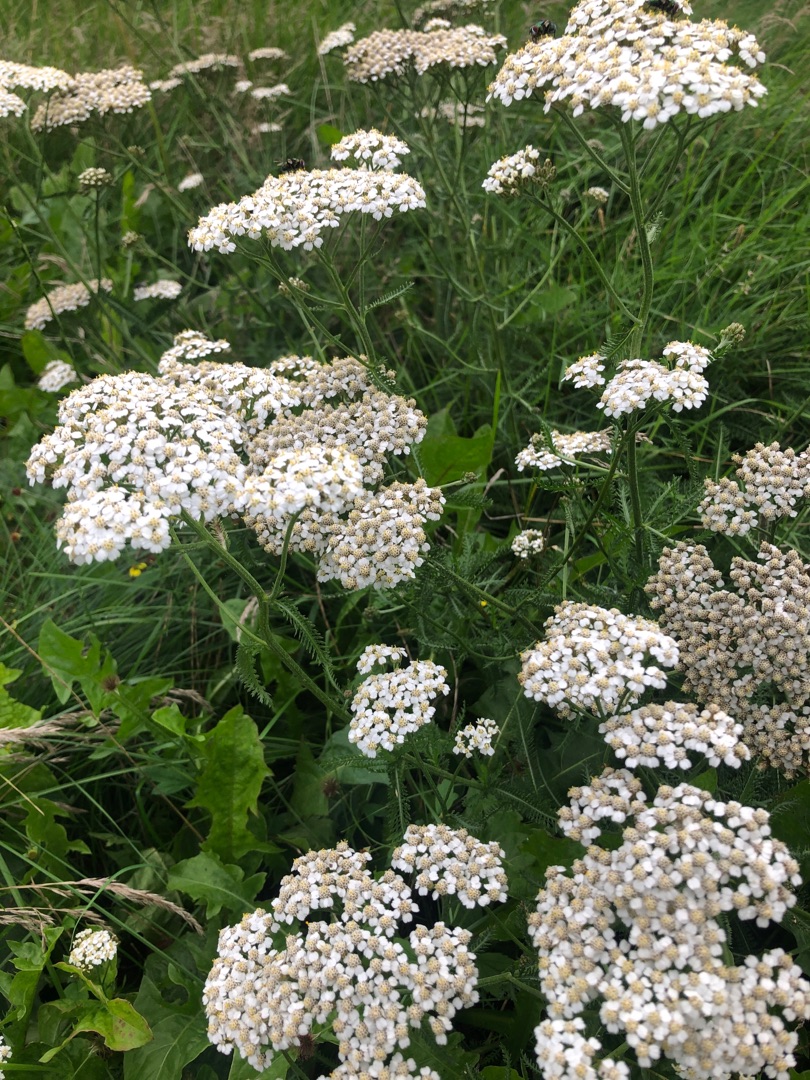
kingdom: Plantae
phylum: Tracheophyta
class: Magnoliopsida
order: Asterales
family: Asteraceae
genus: Achillea
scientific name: Achillea millefolium
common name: Almindelig røllike
